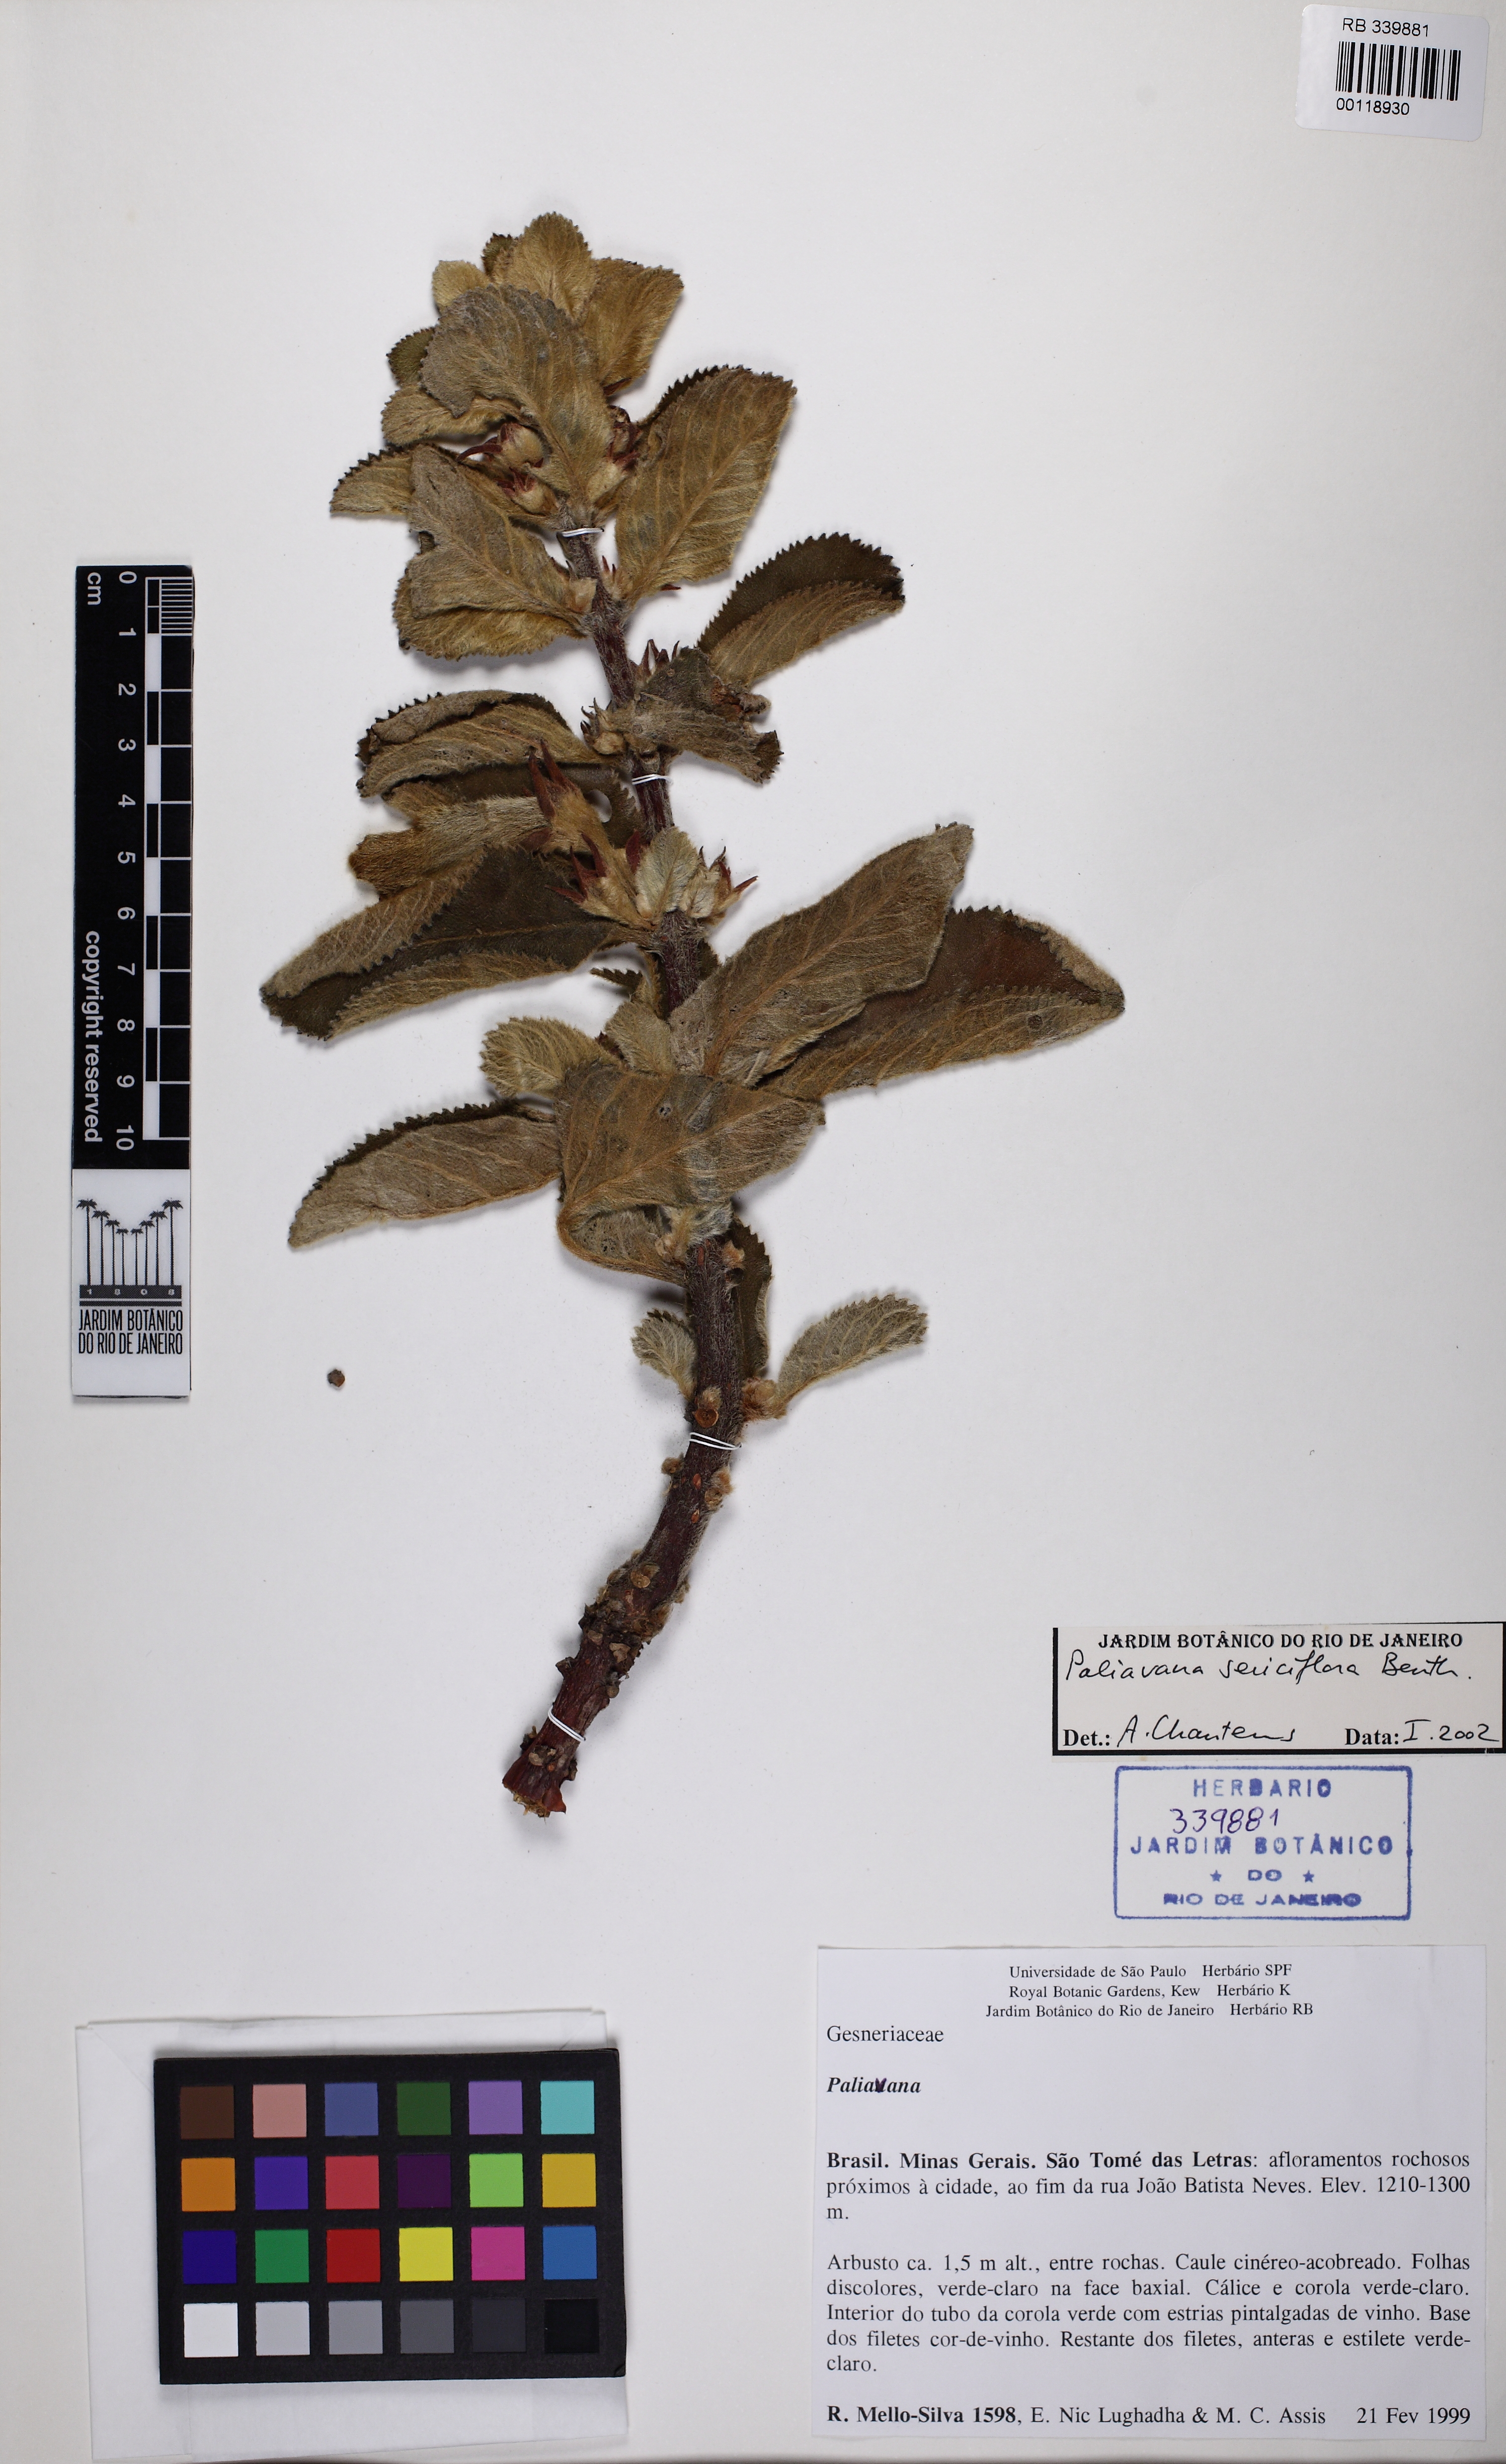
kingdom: Plantae
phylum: Tracheophyta
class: Magnoliopsida
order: Lamiales
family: Gesneriaceae
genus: Paliavana
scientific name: Paliavana sericiflora
